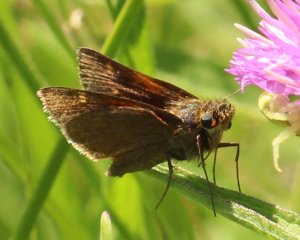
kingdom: Animalia
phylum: Arthropoda
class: Insecta
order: Lepidoptera
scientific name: Lepidoptera
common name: Butterflies
